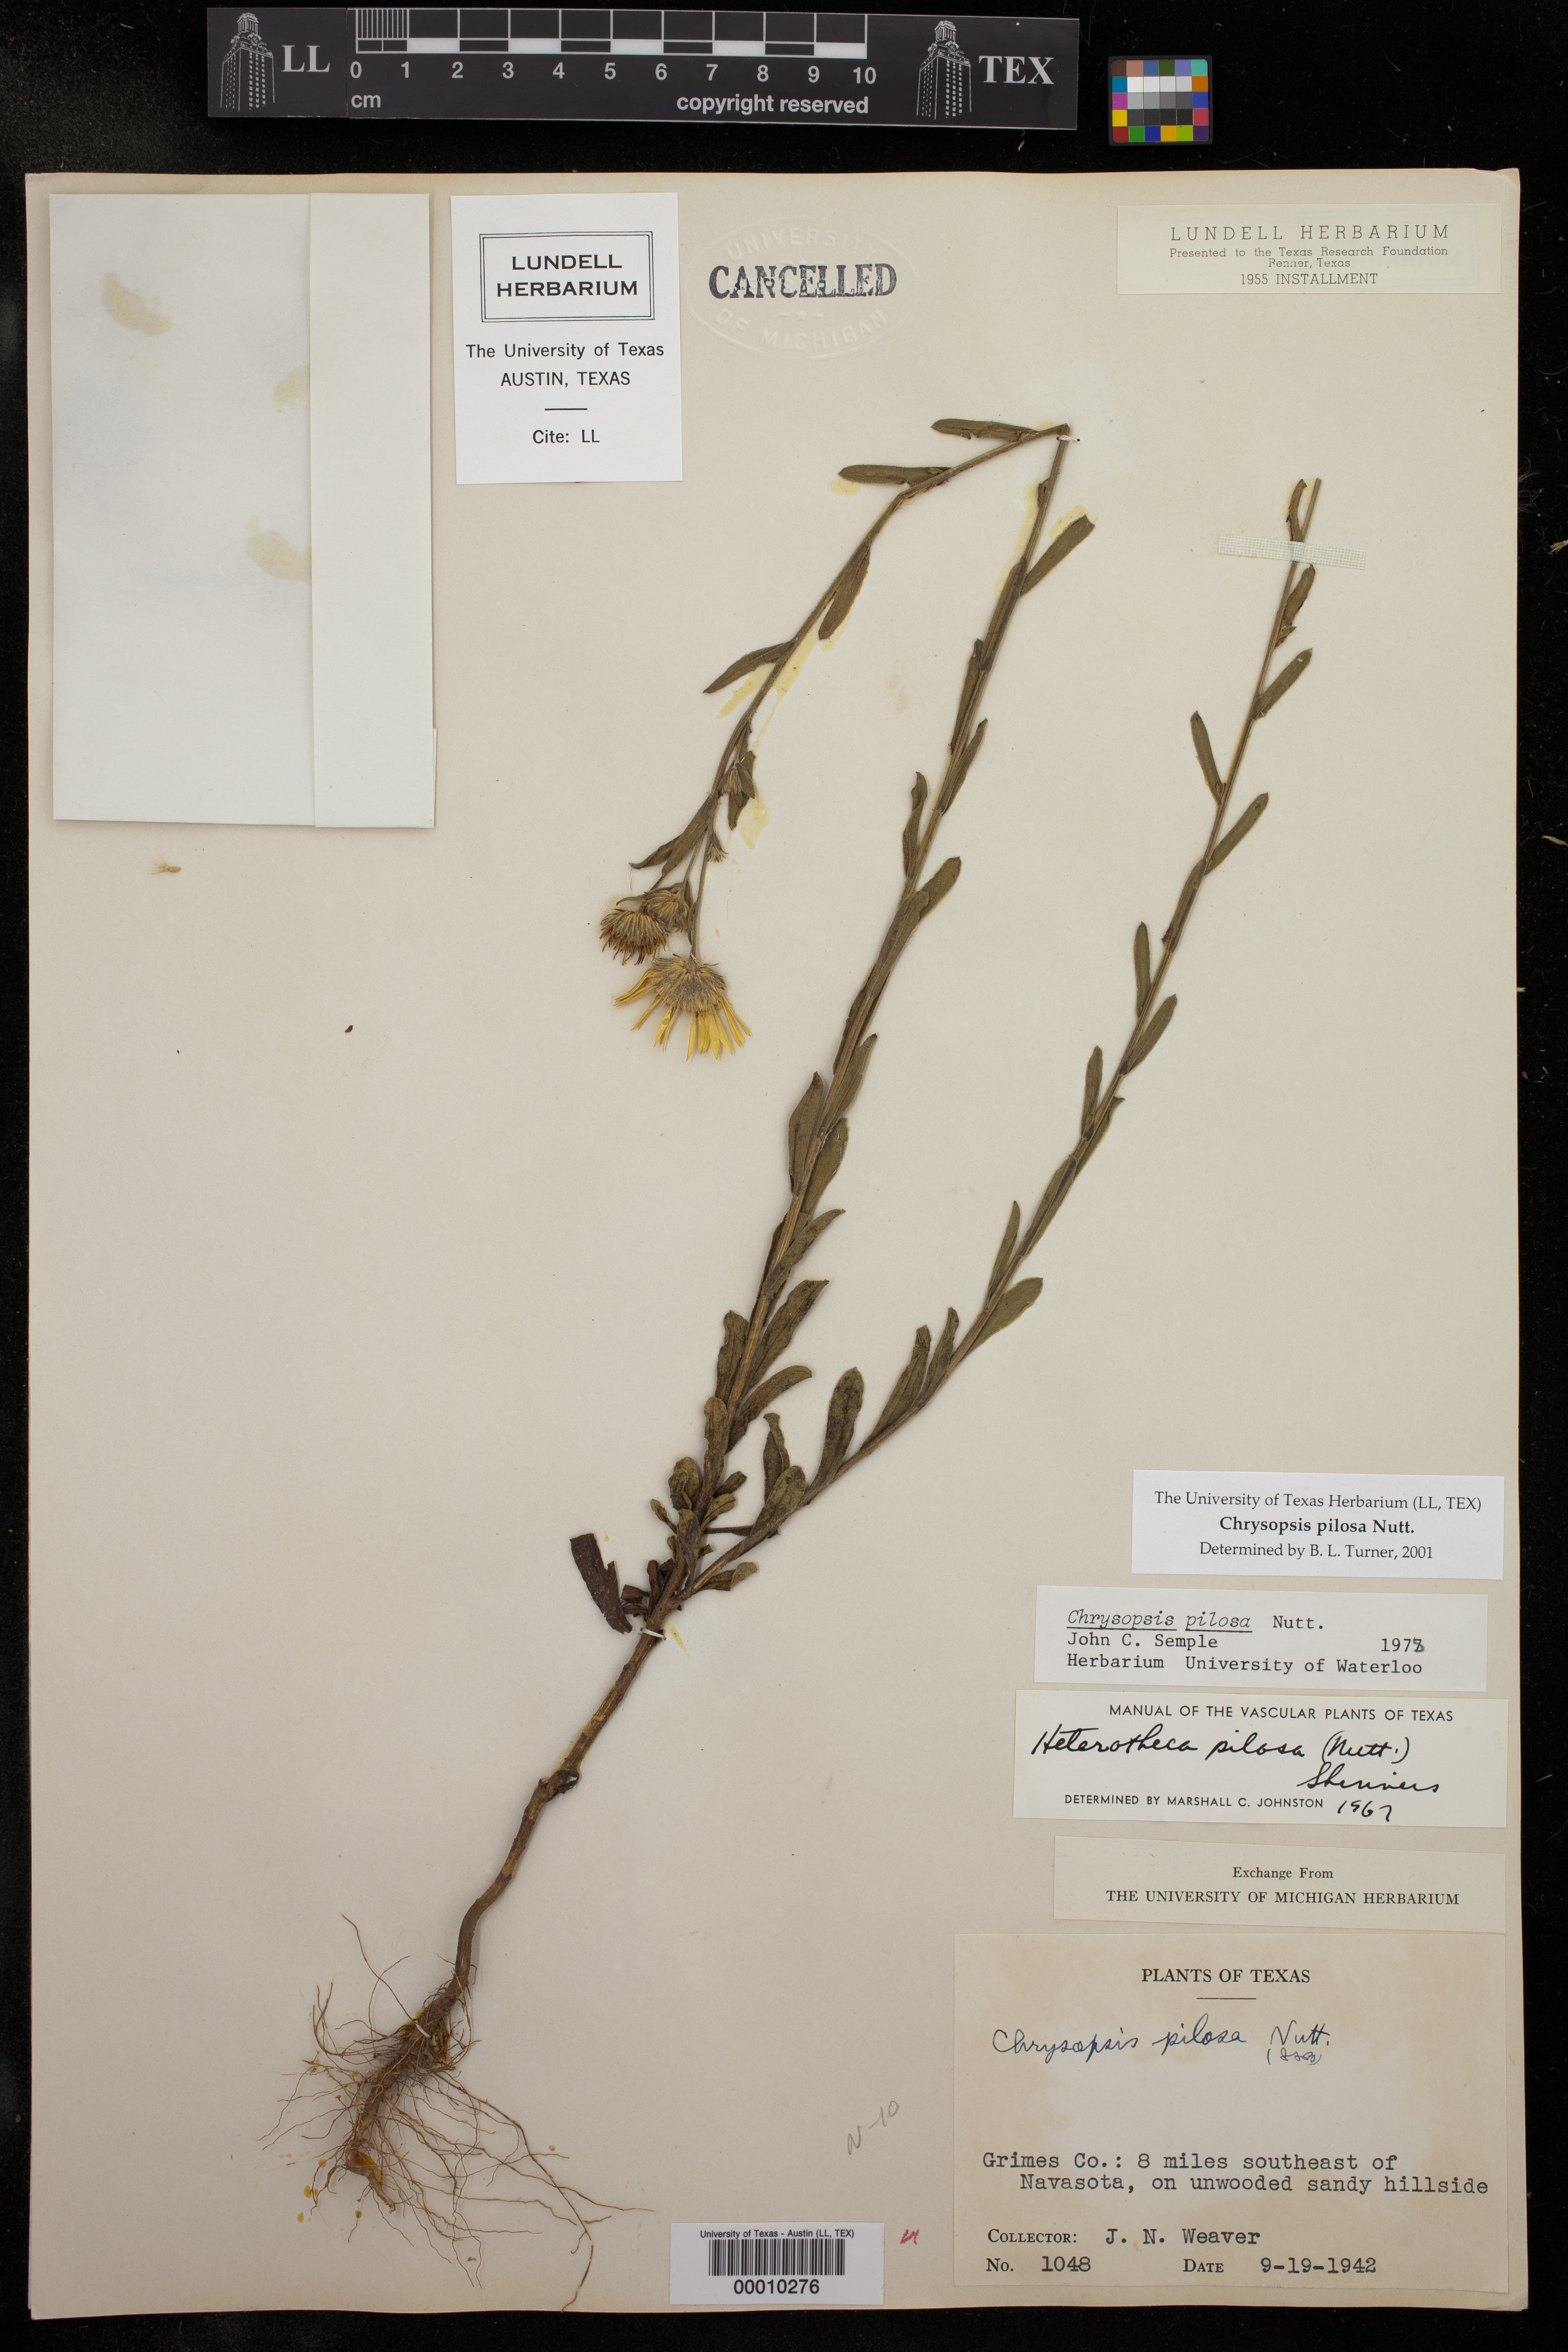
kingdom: Plantae
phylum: Tracheophyta
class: Magnoliopsida
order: Asterales
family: Asteraceae
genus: Chrysopsis
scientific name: Chrysopsis gossypina
